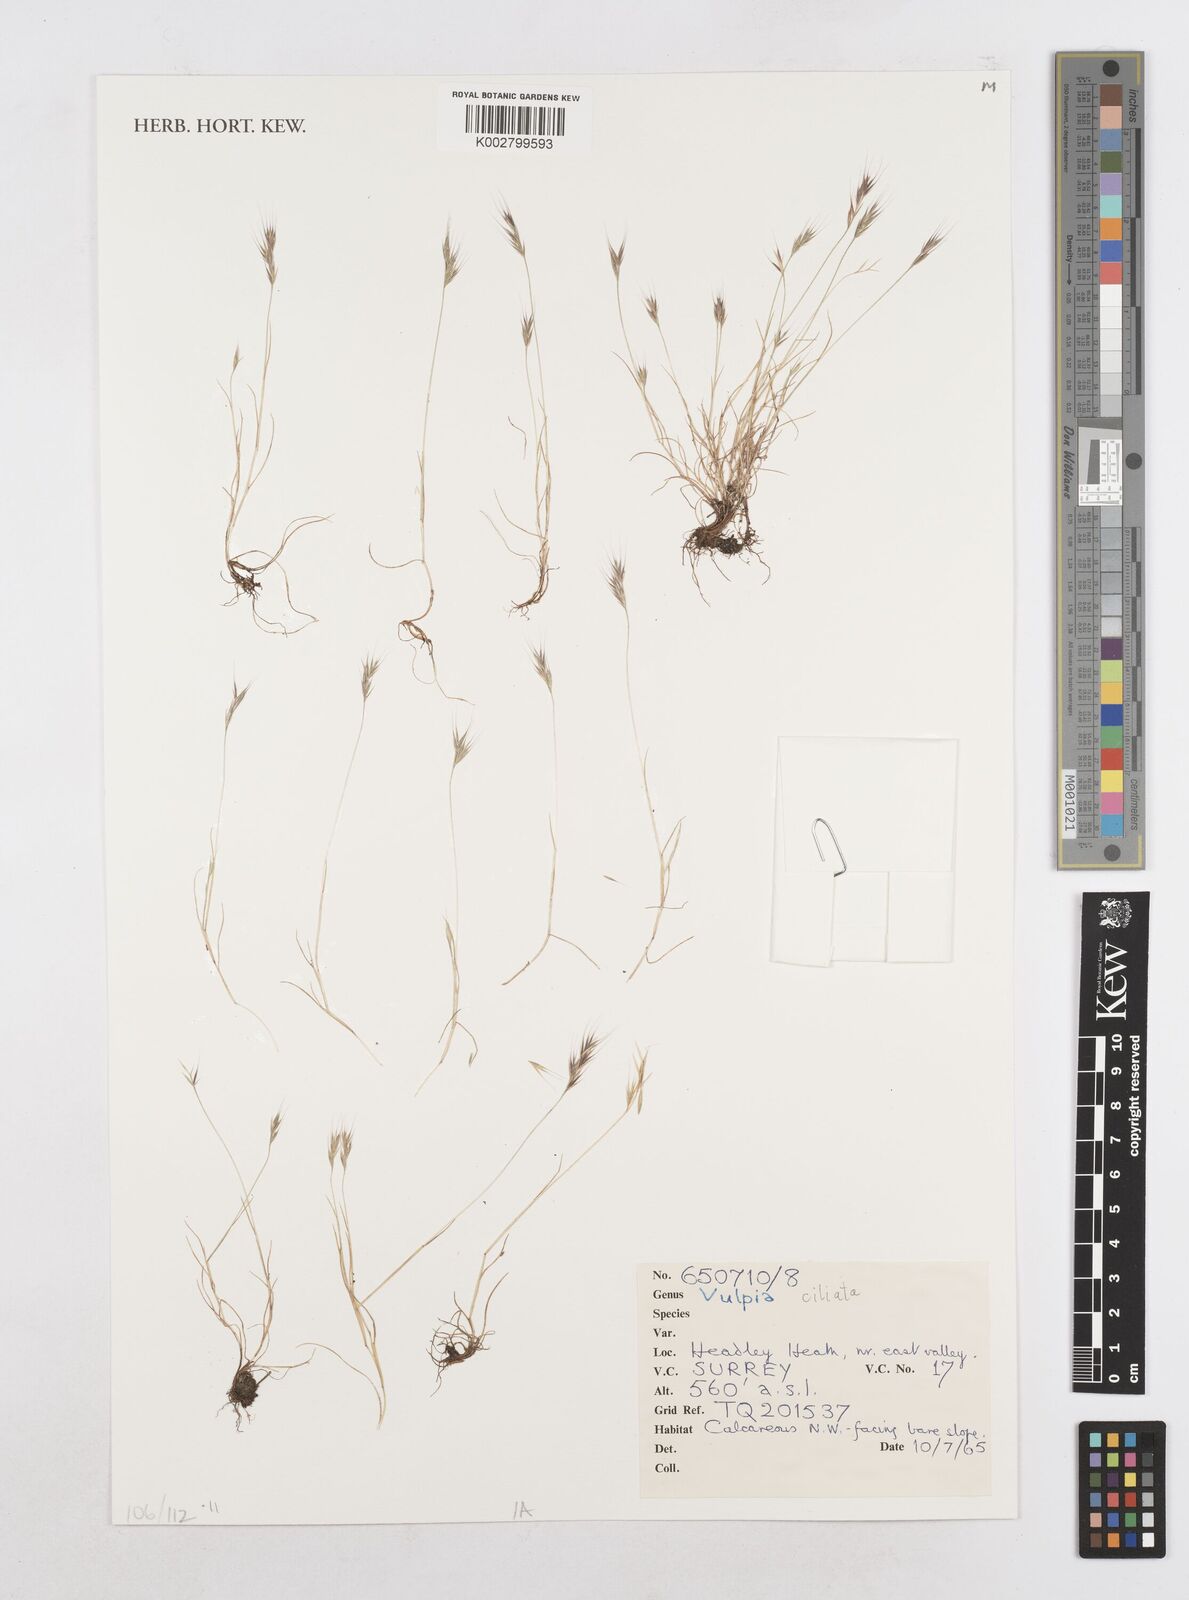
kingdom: Plantae
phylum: Tracheophyta
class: Liliopsida
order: Poales
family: Poaceae
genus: Festuca
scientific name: Festuca ambigua
